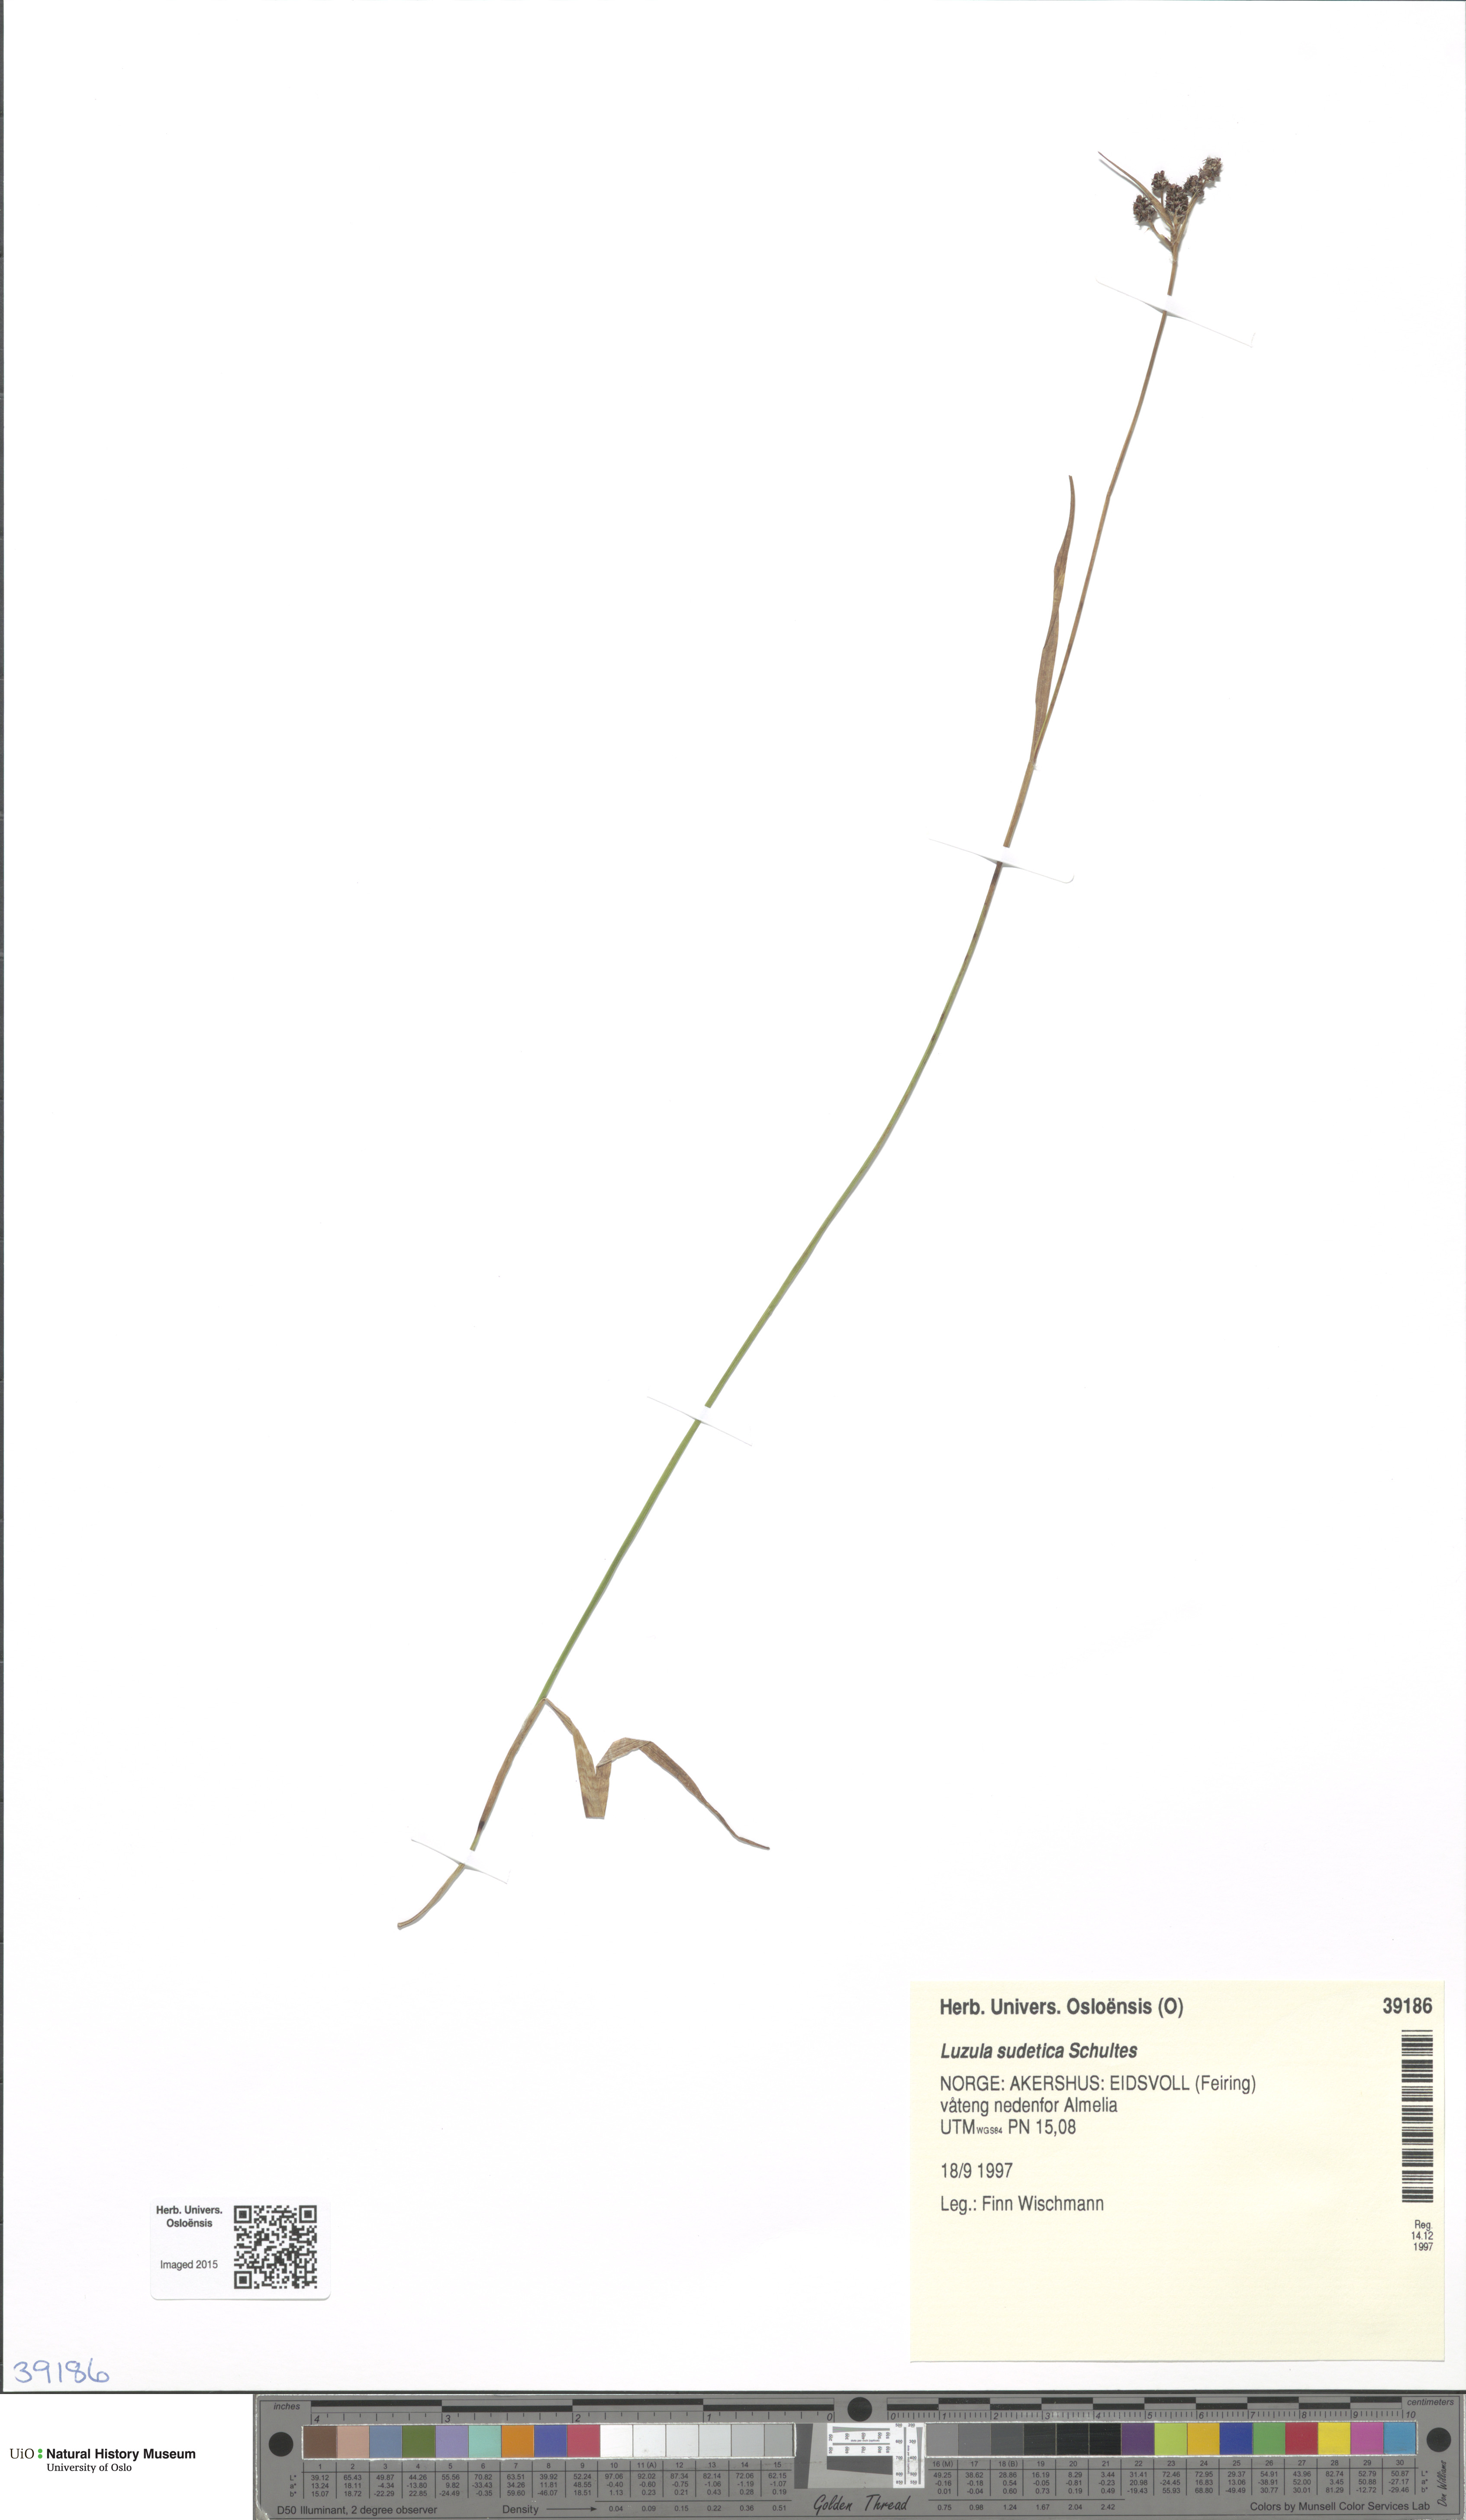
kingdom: Plantae
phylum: Tracheophyta
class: Liliopsida
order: Poales
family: Juncaceae
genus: Luzula
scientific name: Luzula sudetica
